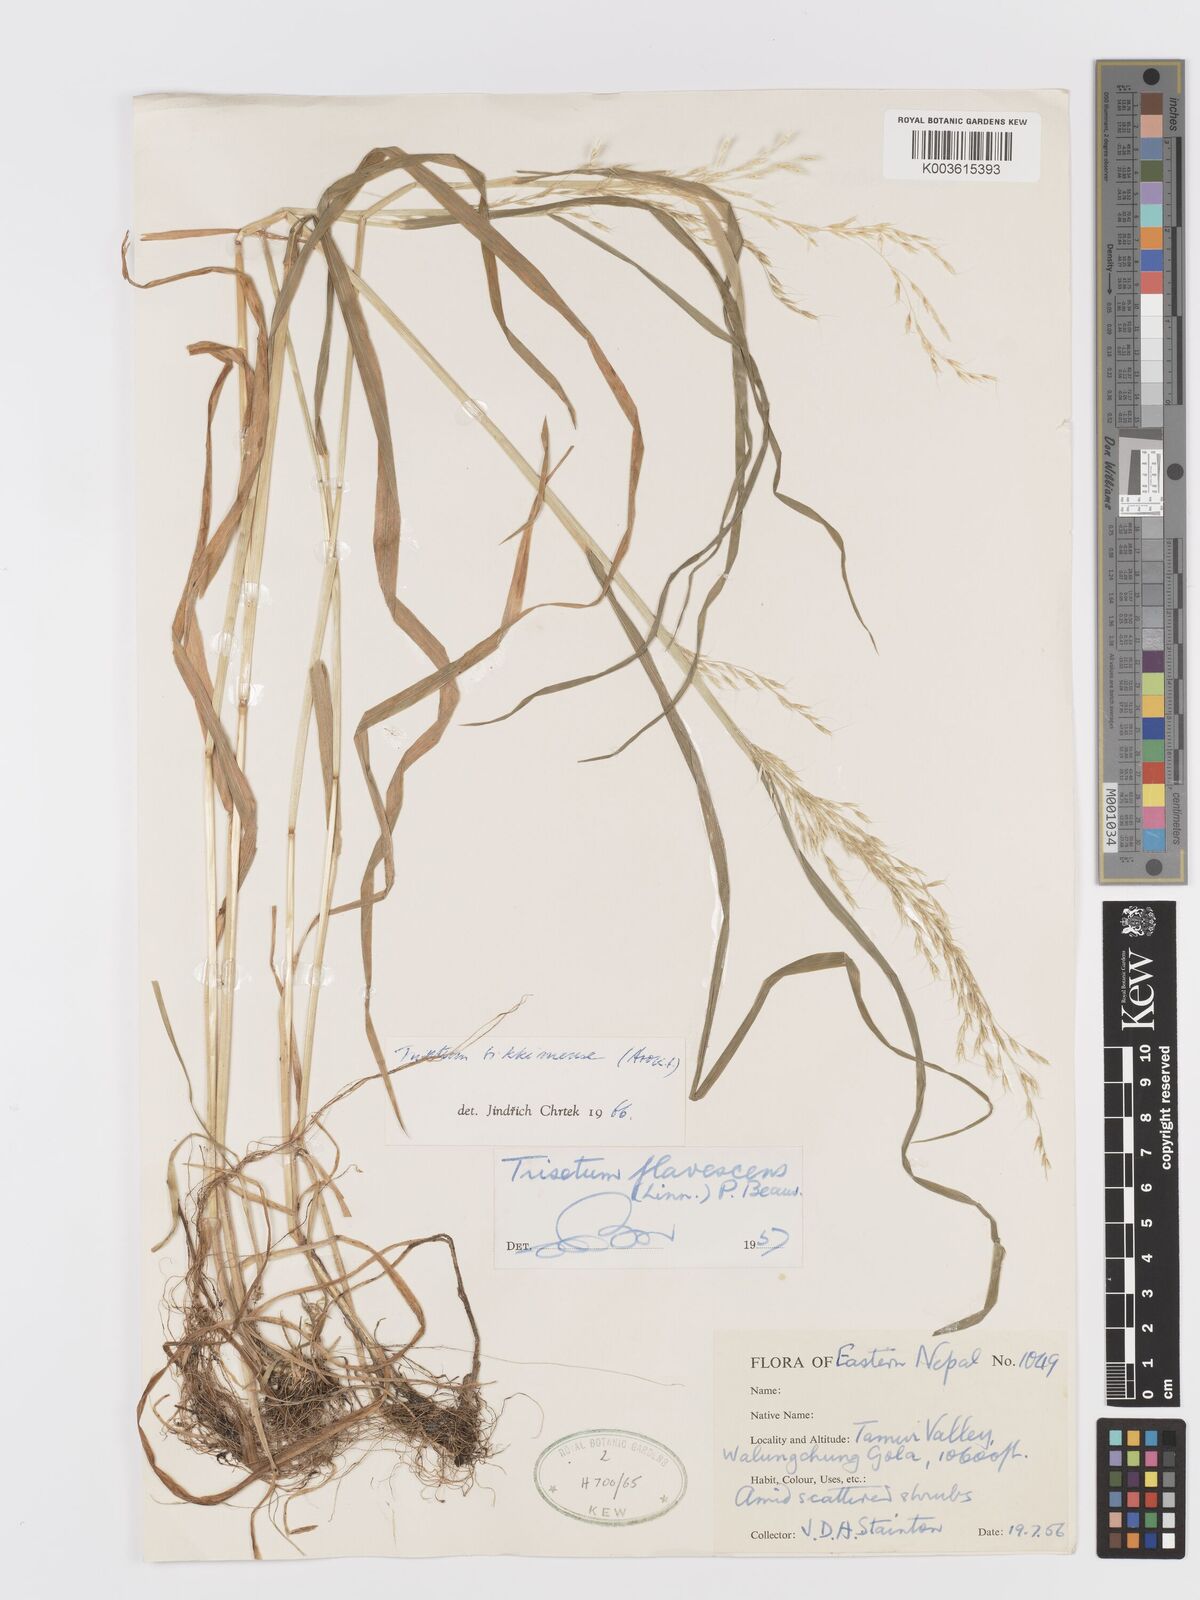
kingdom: Plantae
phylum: Tracheophyta
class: Liliopsida
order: Poales
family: Poaceae
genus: Trisetum
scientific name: Trisetum flavescens
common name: Yellow oat-grass
